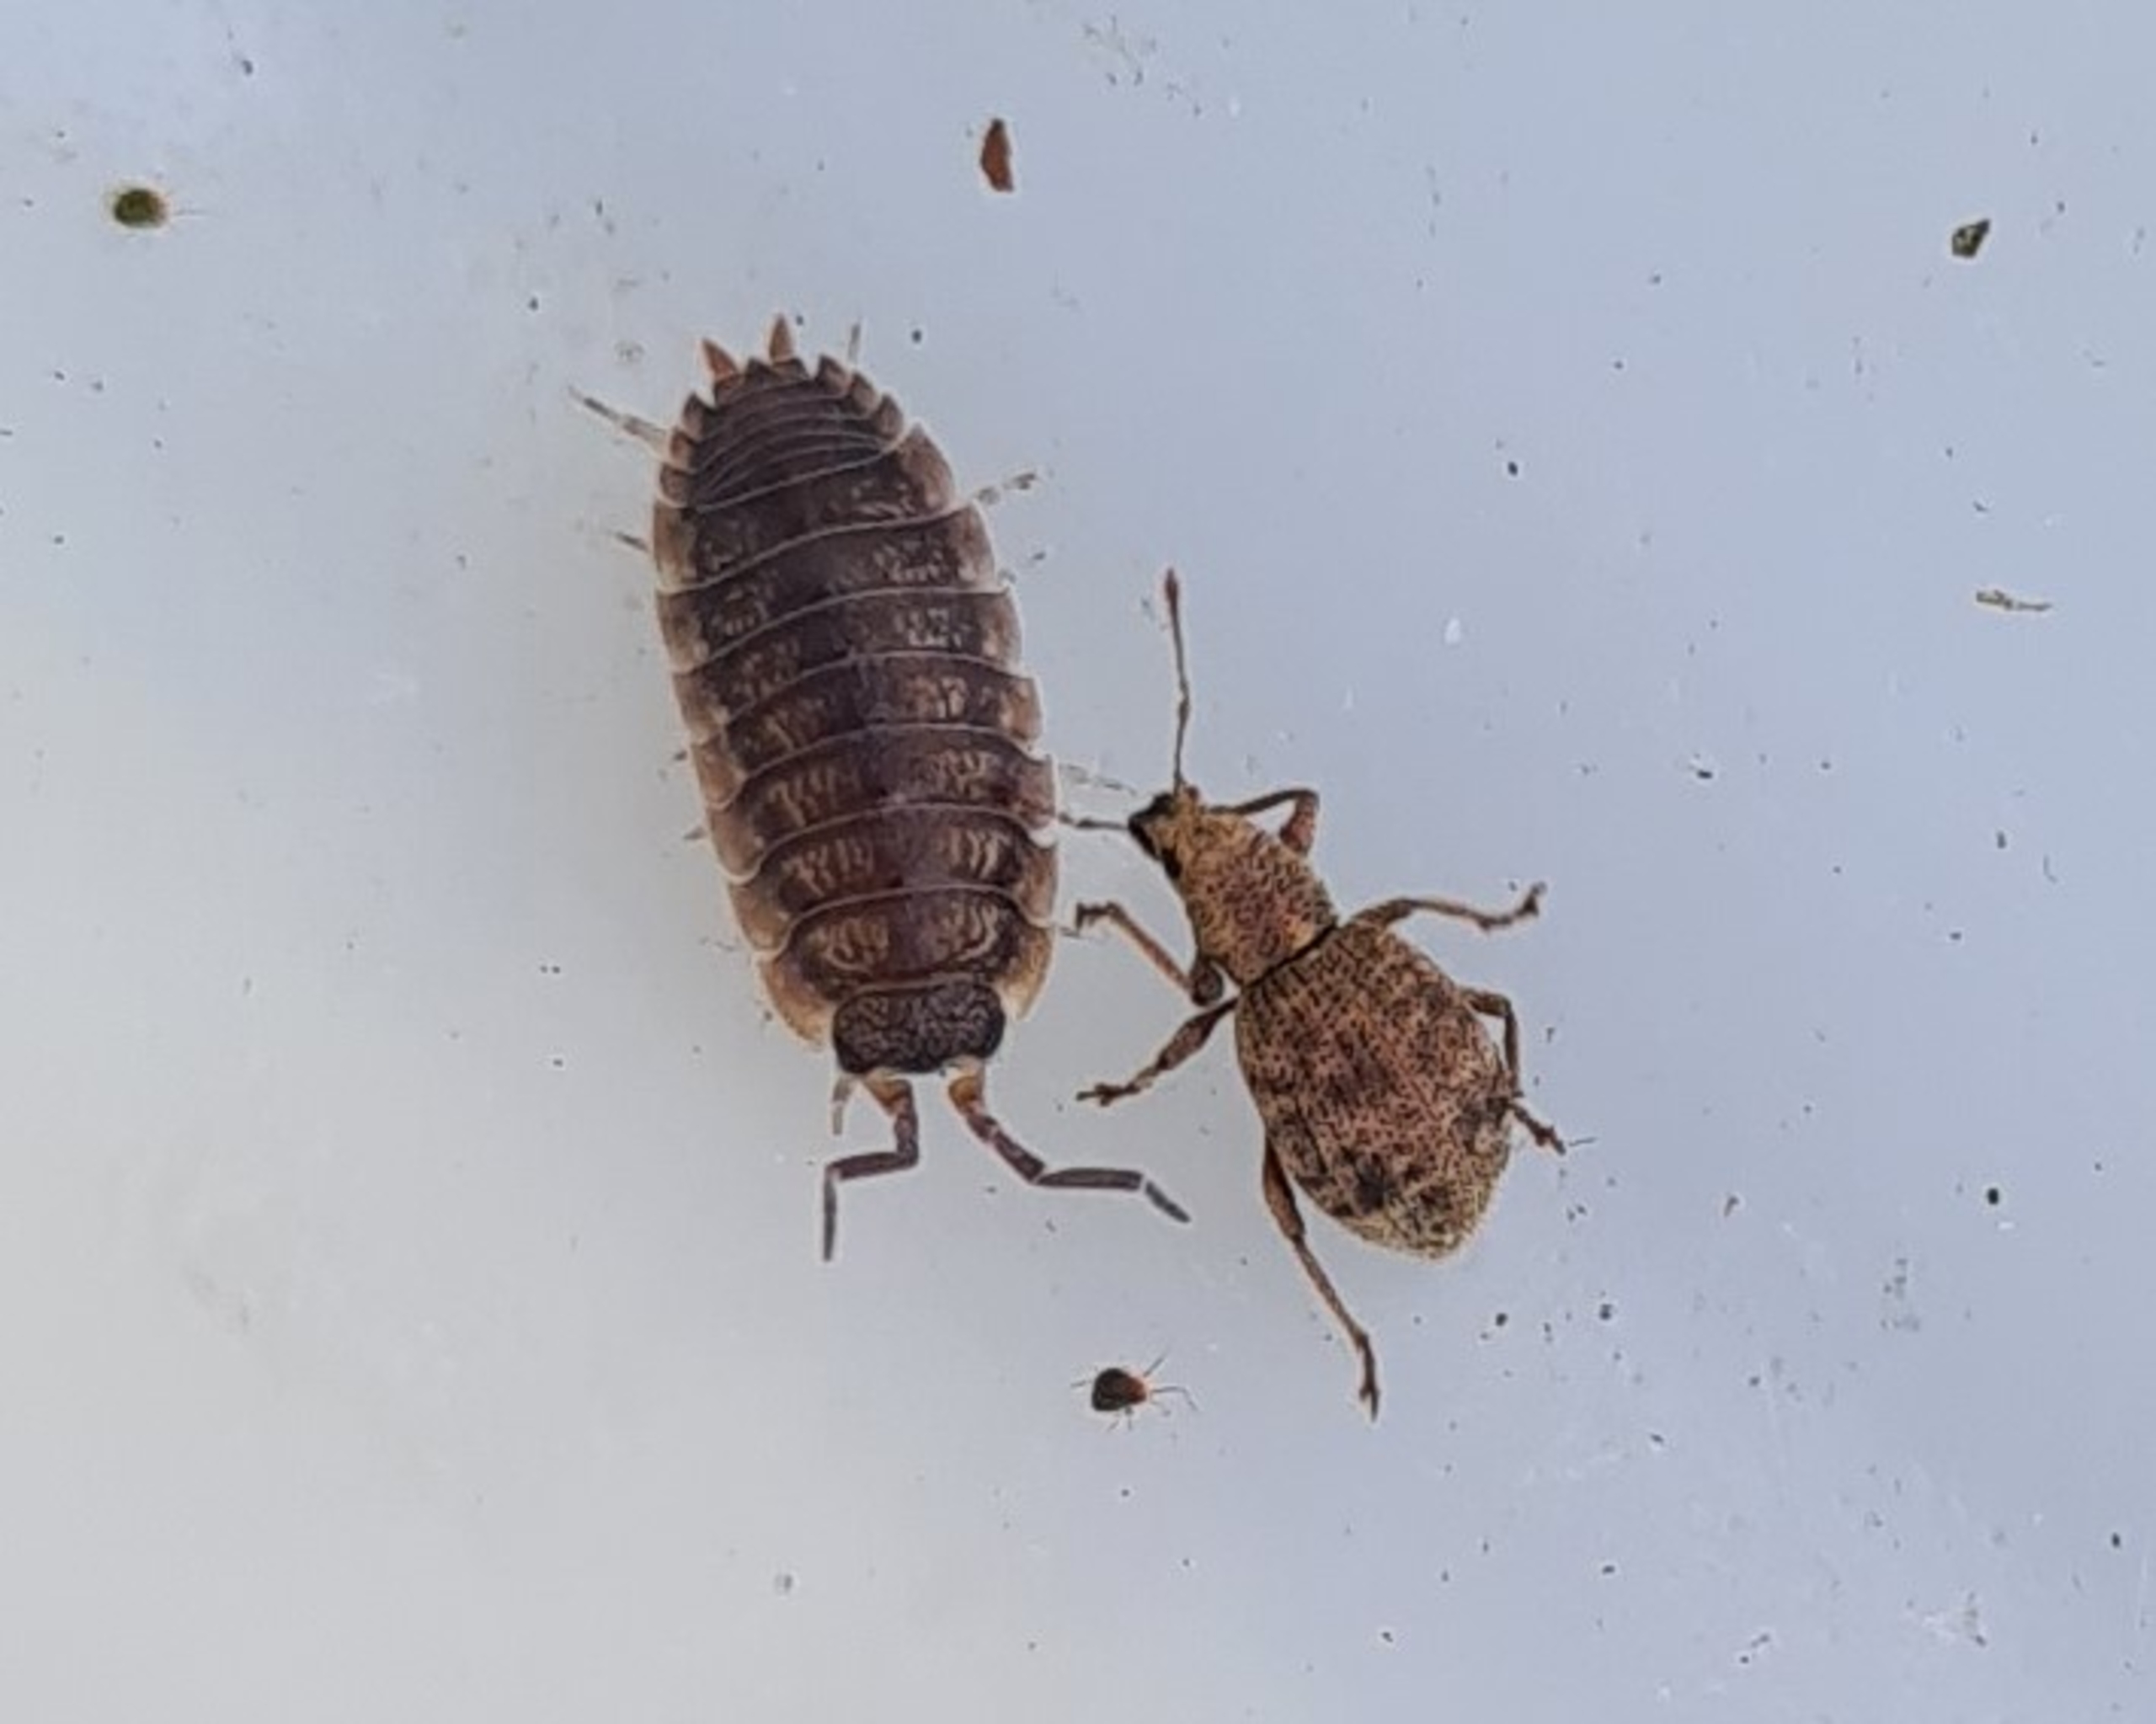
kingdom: Animalia
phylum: Arthropoda
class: Insecta
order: Coleoptera
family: Curculionidae
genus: Sciaphilus
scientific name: Sciaphilus asperatus
